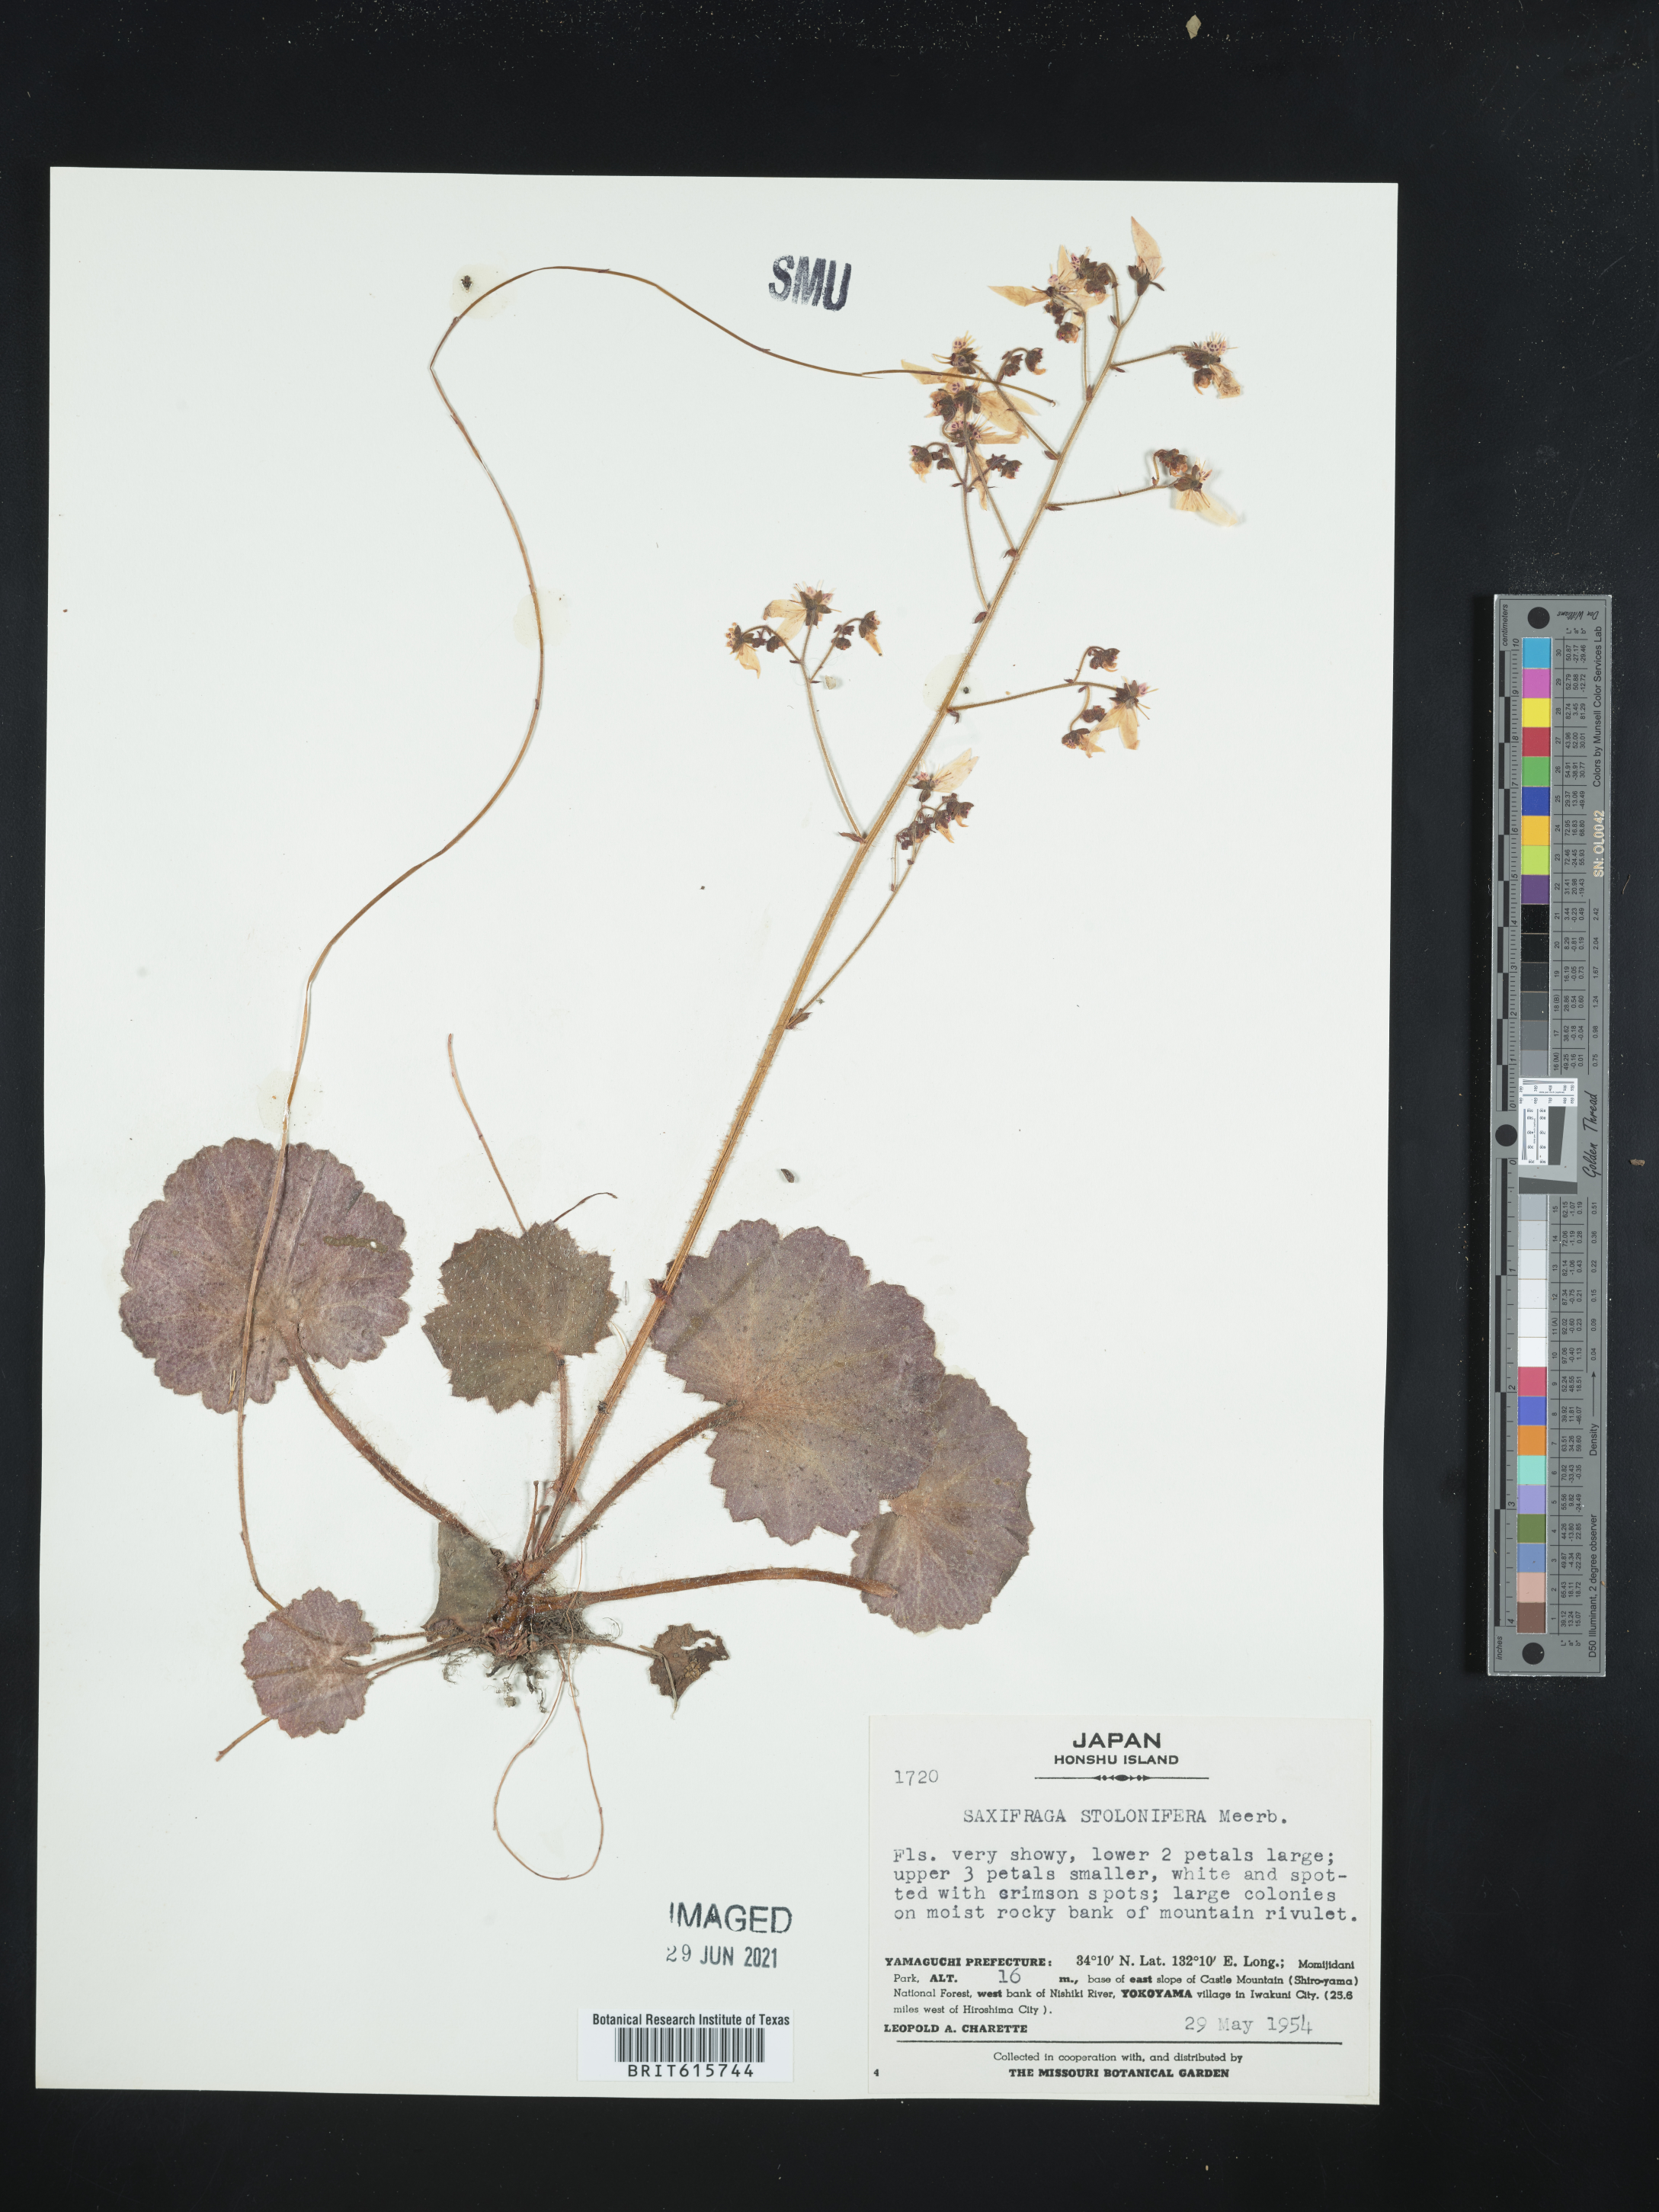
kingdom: Plantae
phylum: Tracheophyta
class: Magnoliopsida
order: Saxifragales
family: Saxifragaceae
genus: Saxifraga
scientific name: Saxifraga stolonifera
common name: Creeping saxifrage
